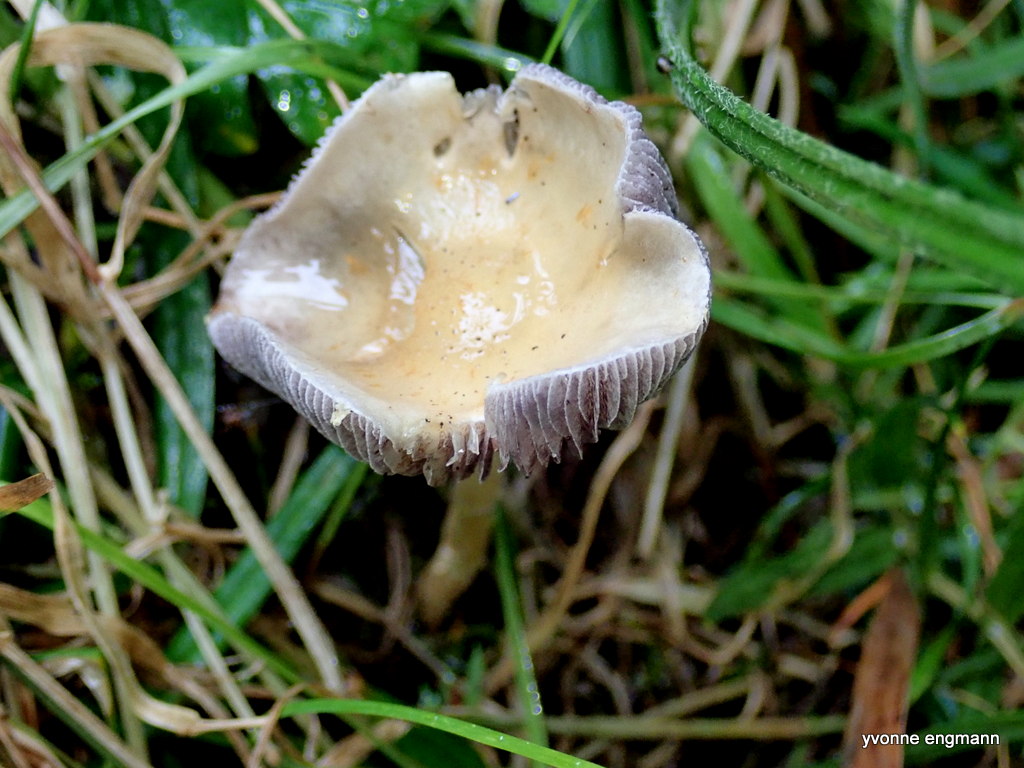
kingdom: Fungi
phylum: Basidiomycota
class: Agaricomycetes
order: Agaricales
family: Strophariaceae
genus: Stropharia
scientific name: Stropharia
